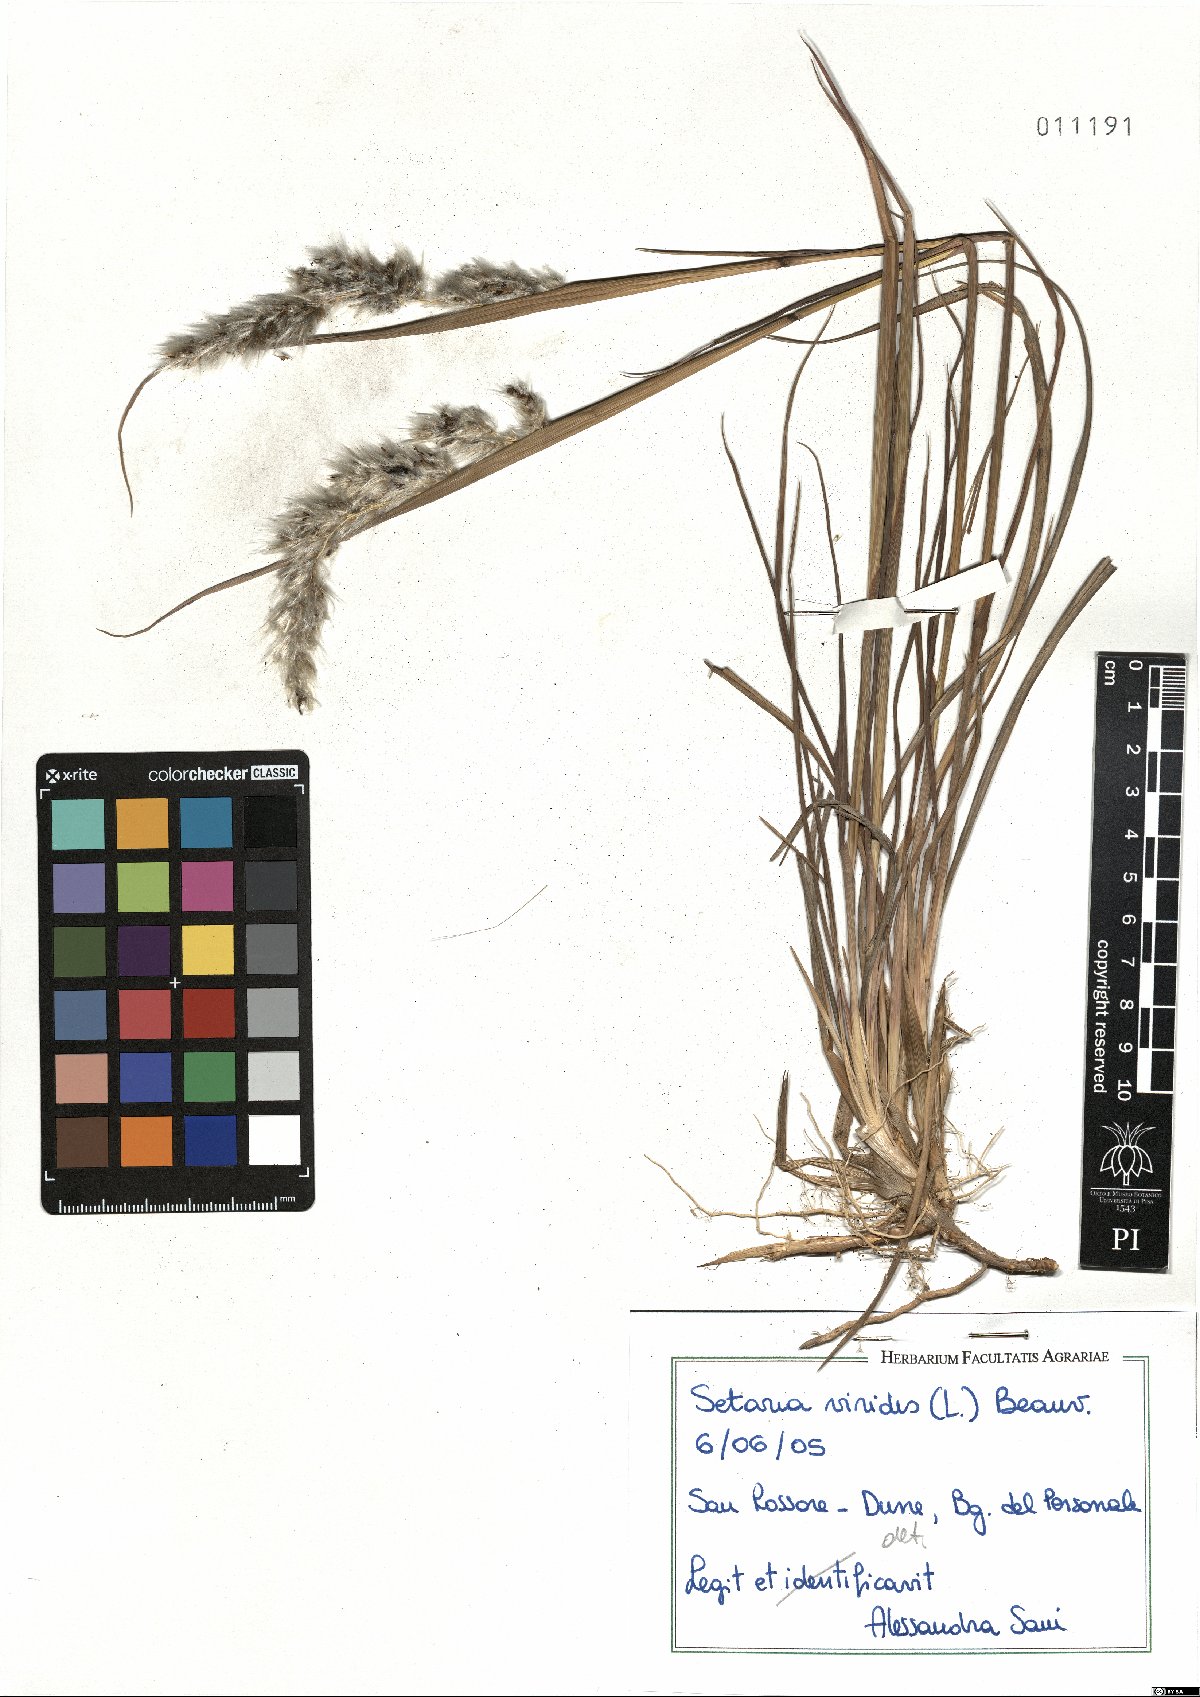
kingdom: Plantae
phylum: Tracheophyta
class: Liliopsida
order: Poales
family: Poaceae
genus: Setaria
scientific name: Setaria viridis
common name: Green bristlegrass
